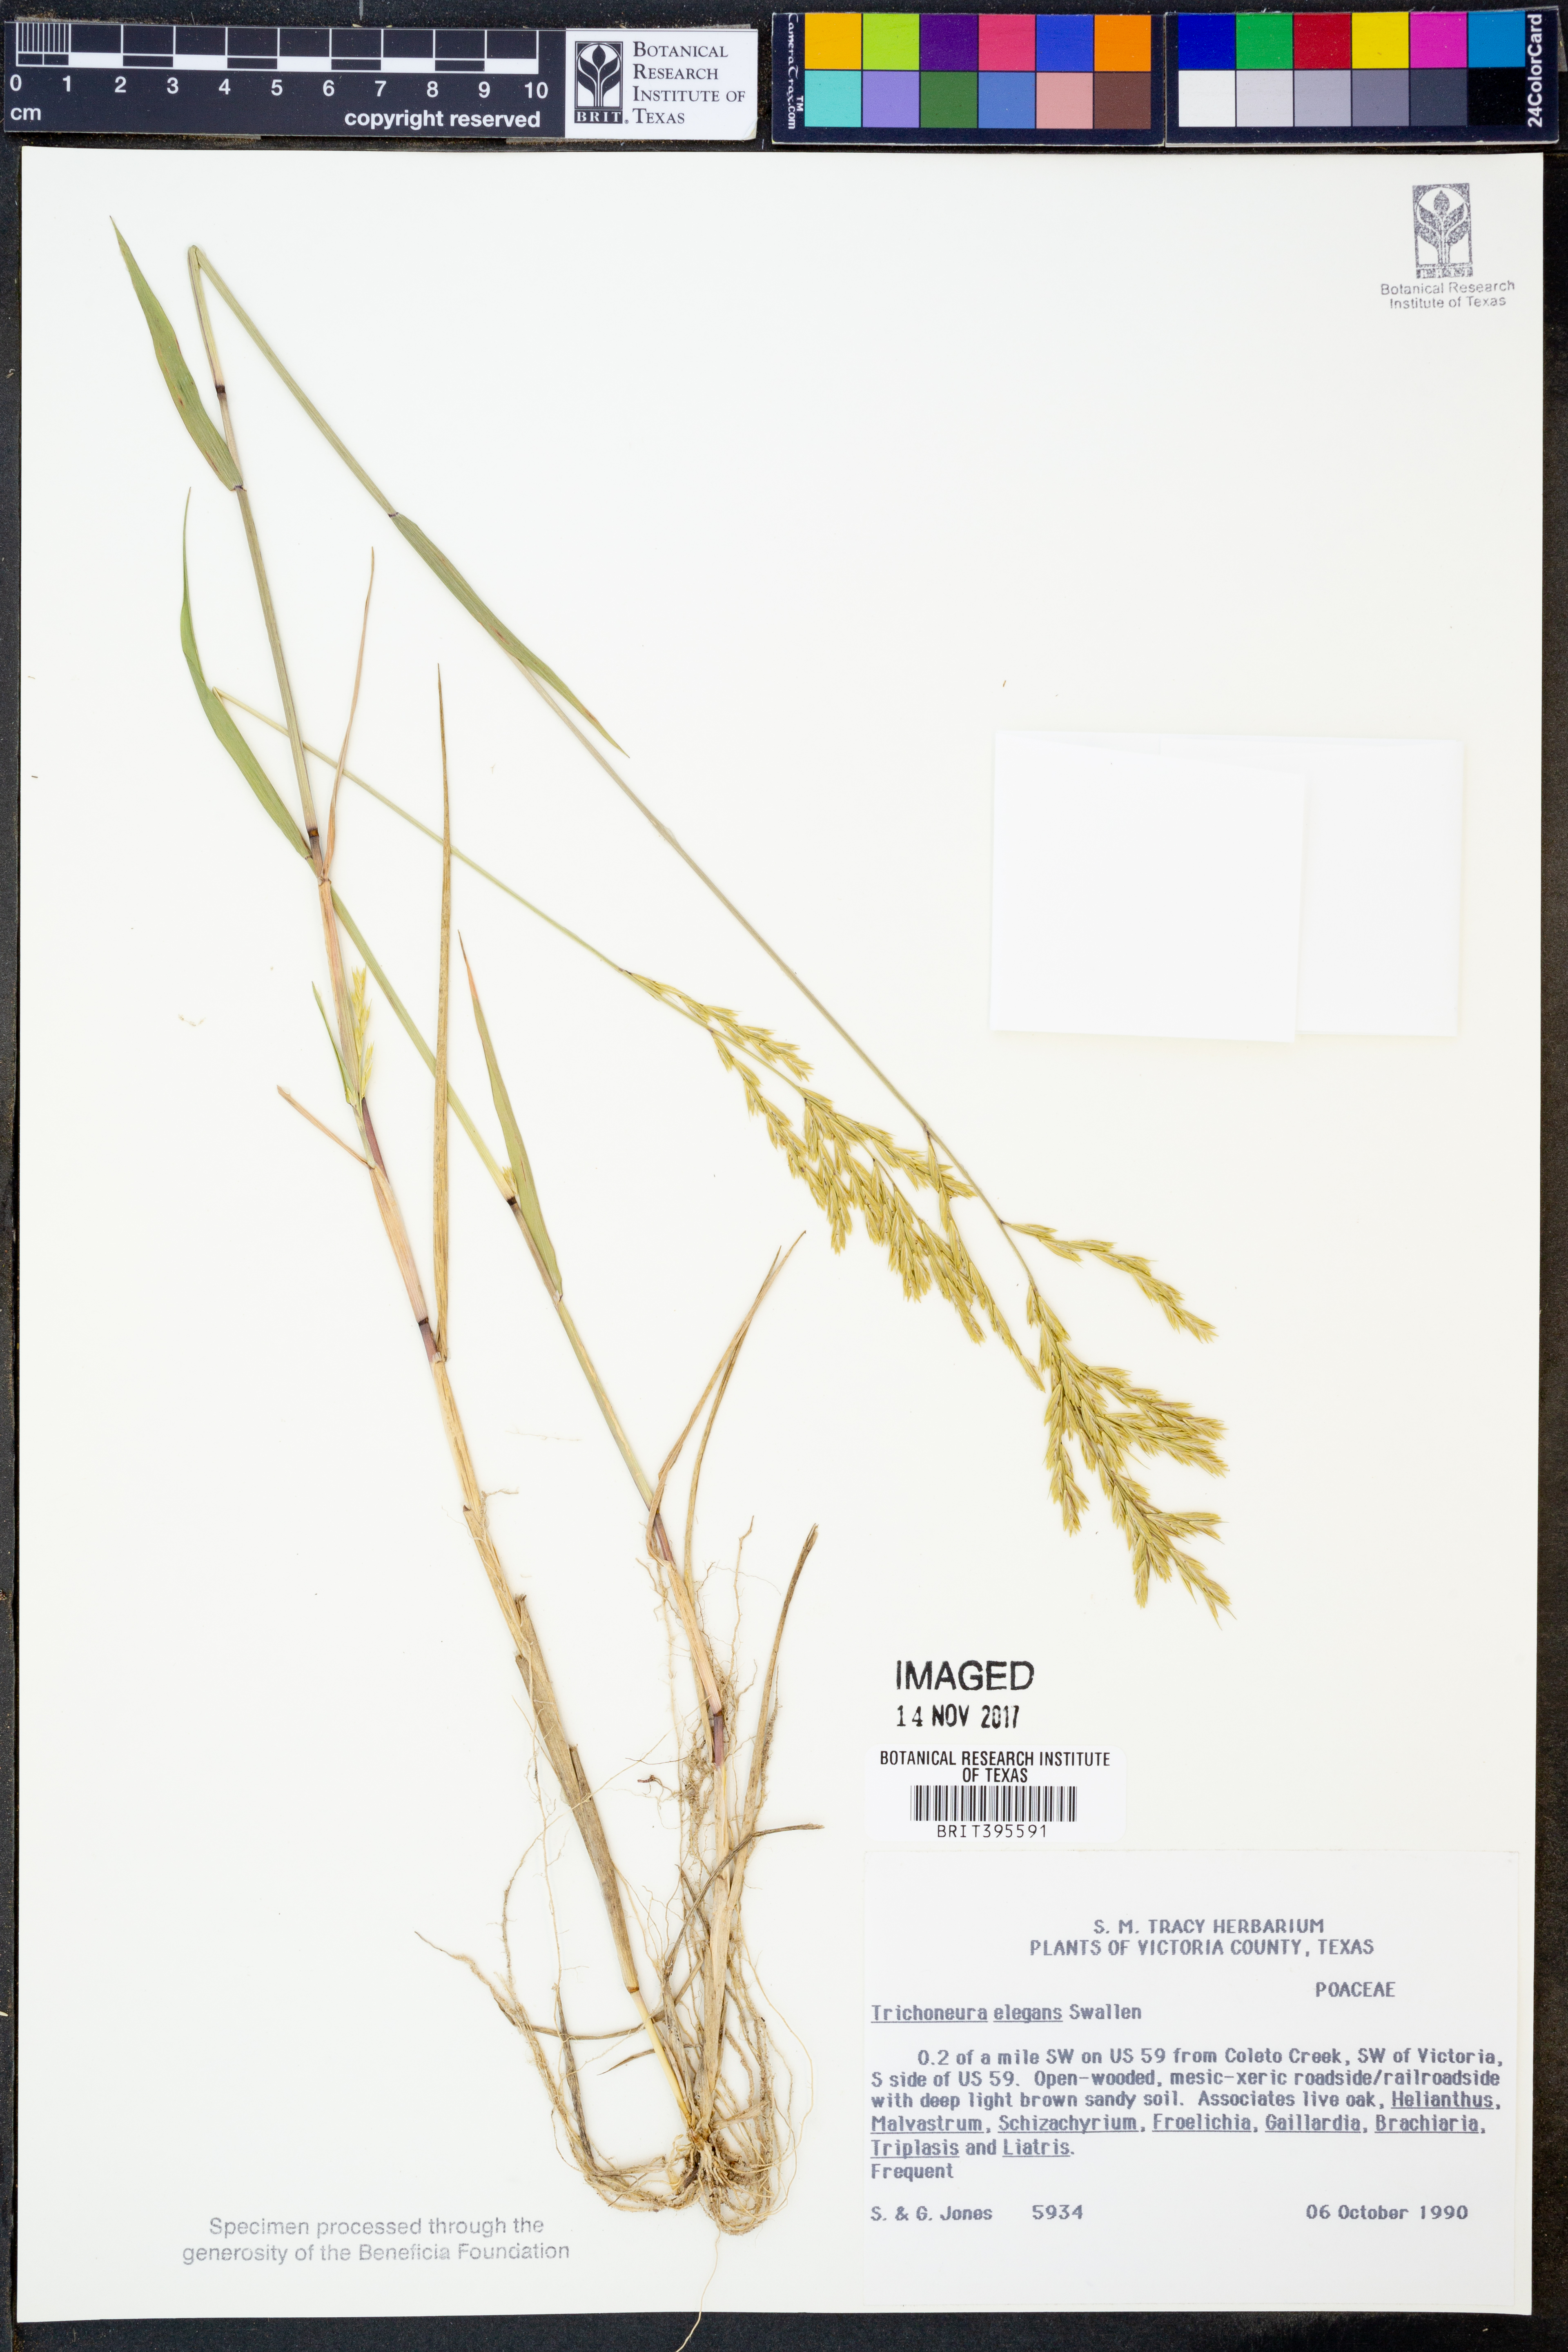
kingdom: Plantae
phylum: Tracheophyta
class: Liliopsida
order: Poales
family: Poaceae
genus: Trichoneura
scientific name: Trichoneura elegans
